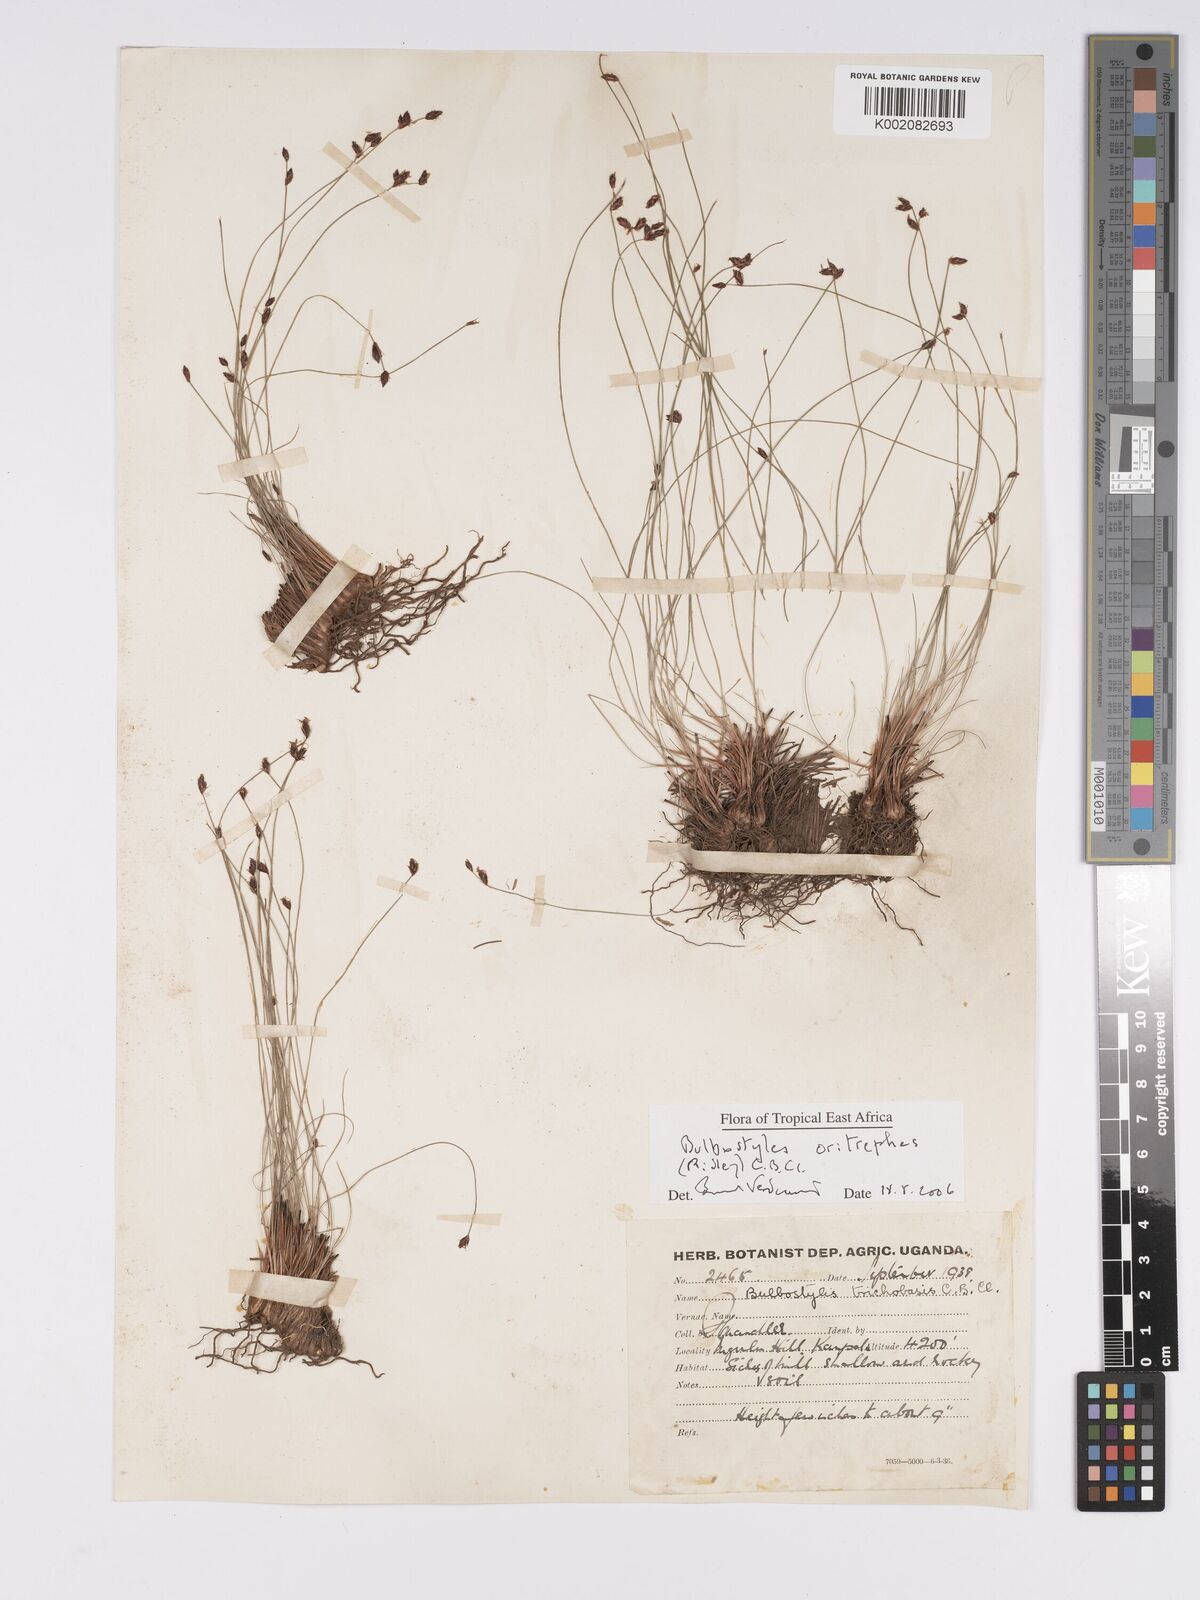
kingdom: Plantae
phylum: Tracheophyta
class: Liliopsida
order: Poales
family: Cyperaceae
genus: Bulbostylis
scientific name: Bulbostylis oritrephes
